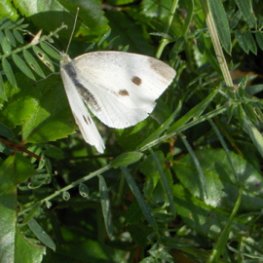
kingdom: Animalia
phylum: Arthropoda
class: Insecta
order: Lepidoptera
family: Pieridae
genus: Pieris
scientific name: Pieris rapae
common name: Cabbage White
